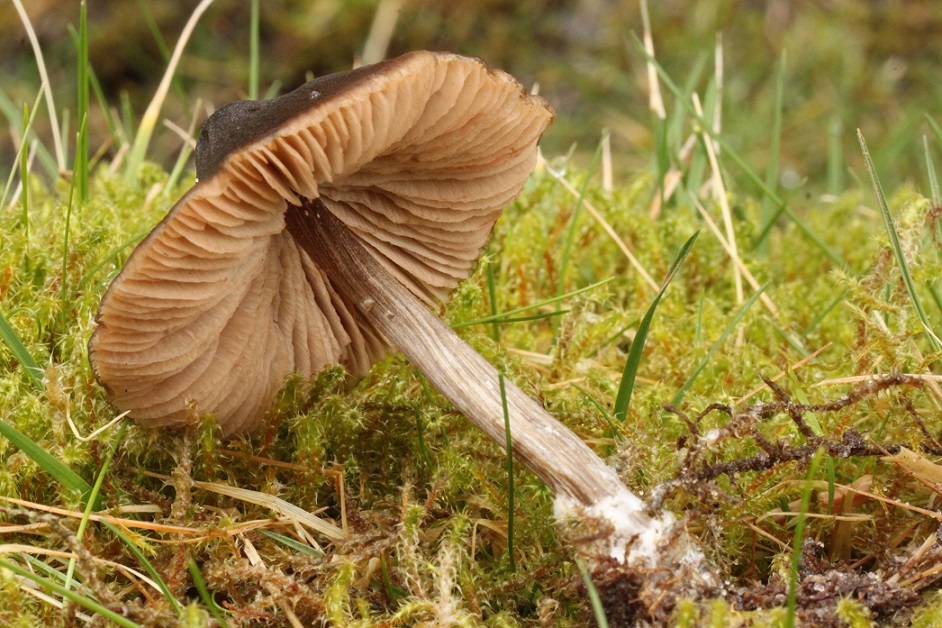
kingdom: Fungi
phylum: Basidiomycota
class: Agaricomycetes
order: Agaricales
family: Entolomataceae
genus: Entoloma
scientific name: Entoloma conferendum
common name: stjernesporet rødblad
